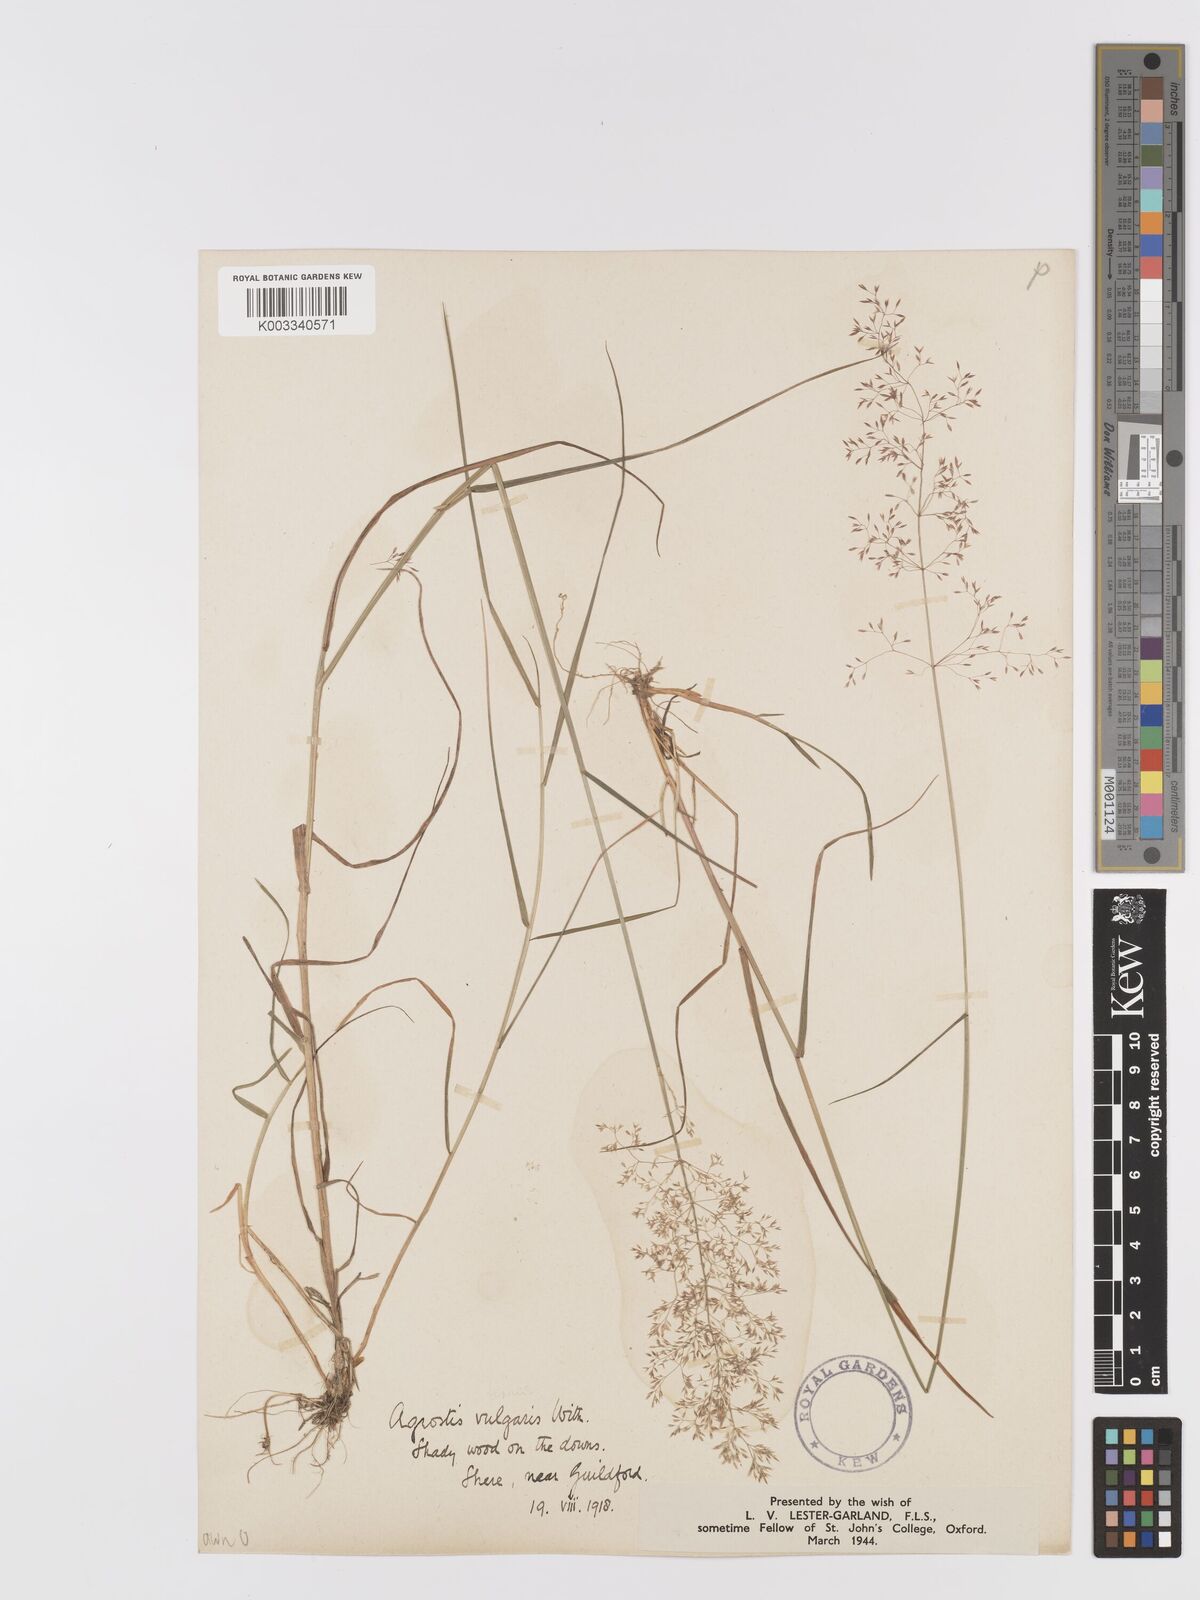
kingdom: Plantae
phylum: Tracheophyta
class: Liliopsida
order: Poales
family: Poaceae
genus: Agrostis
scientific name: Agrostis capillaris
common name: Colonial bentgrass
